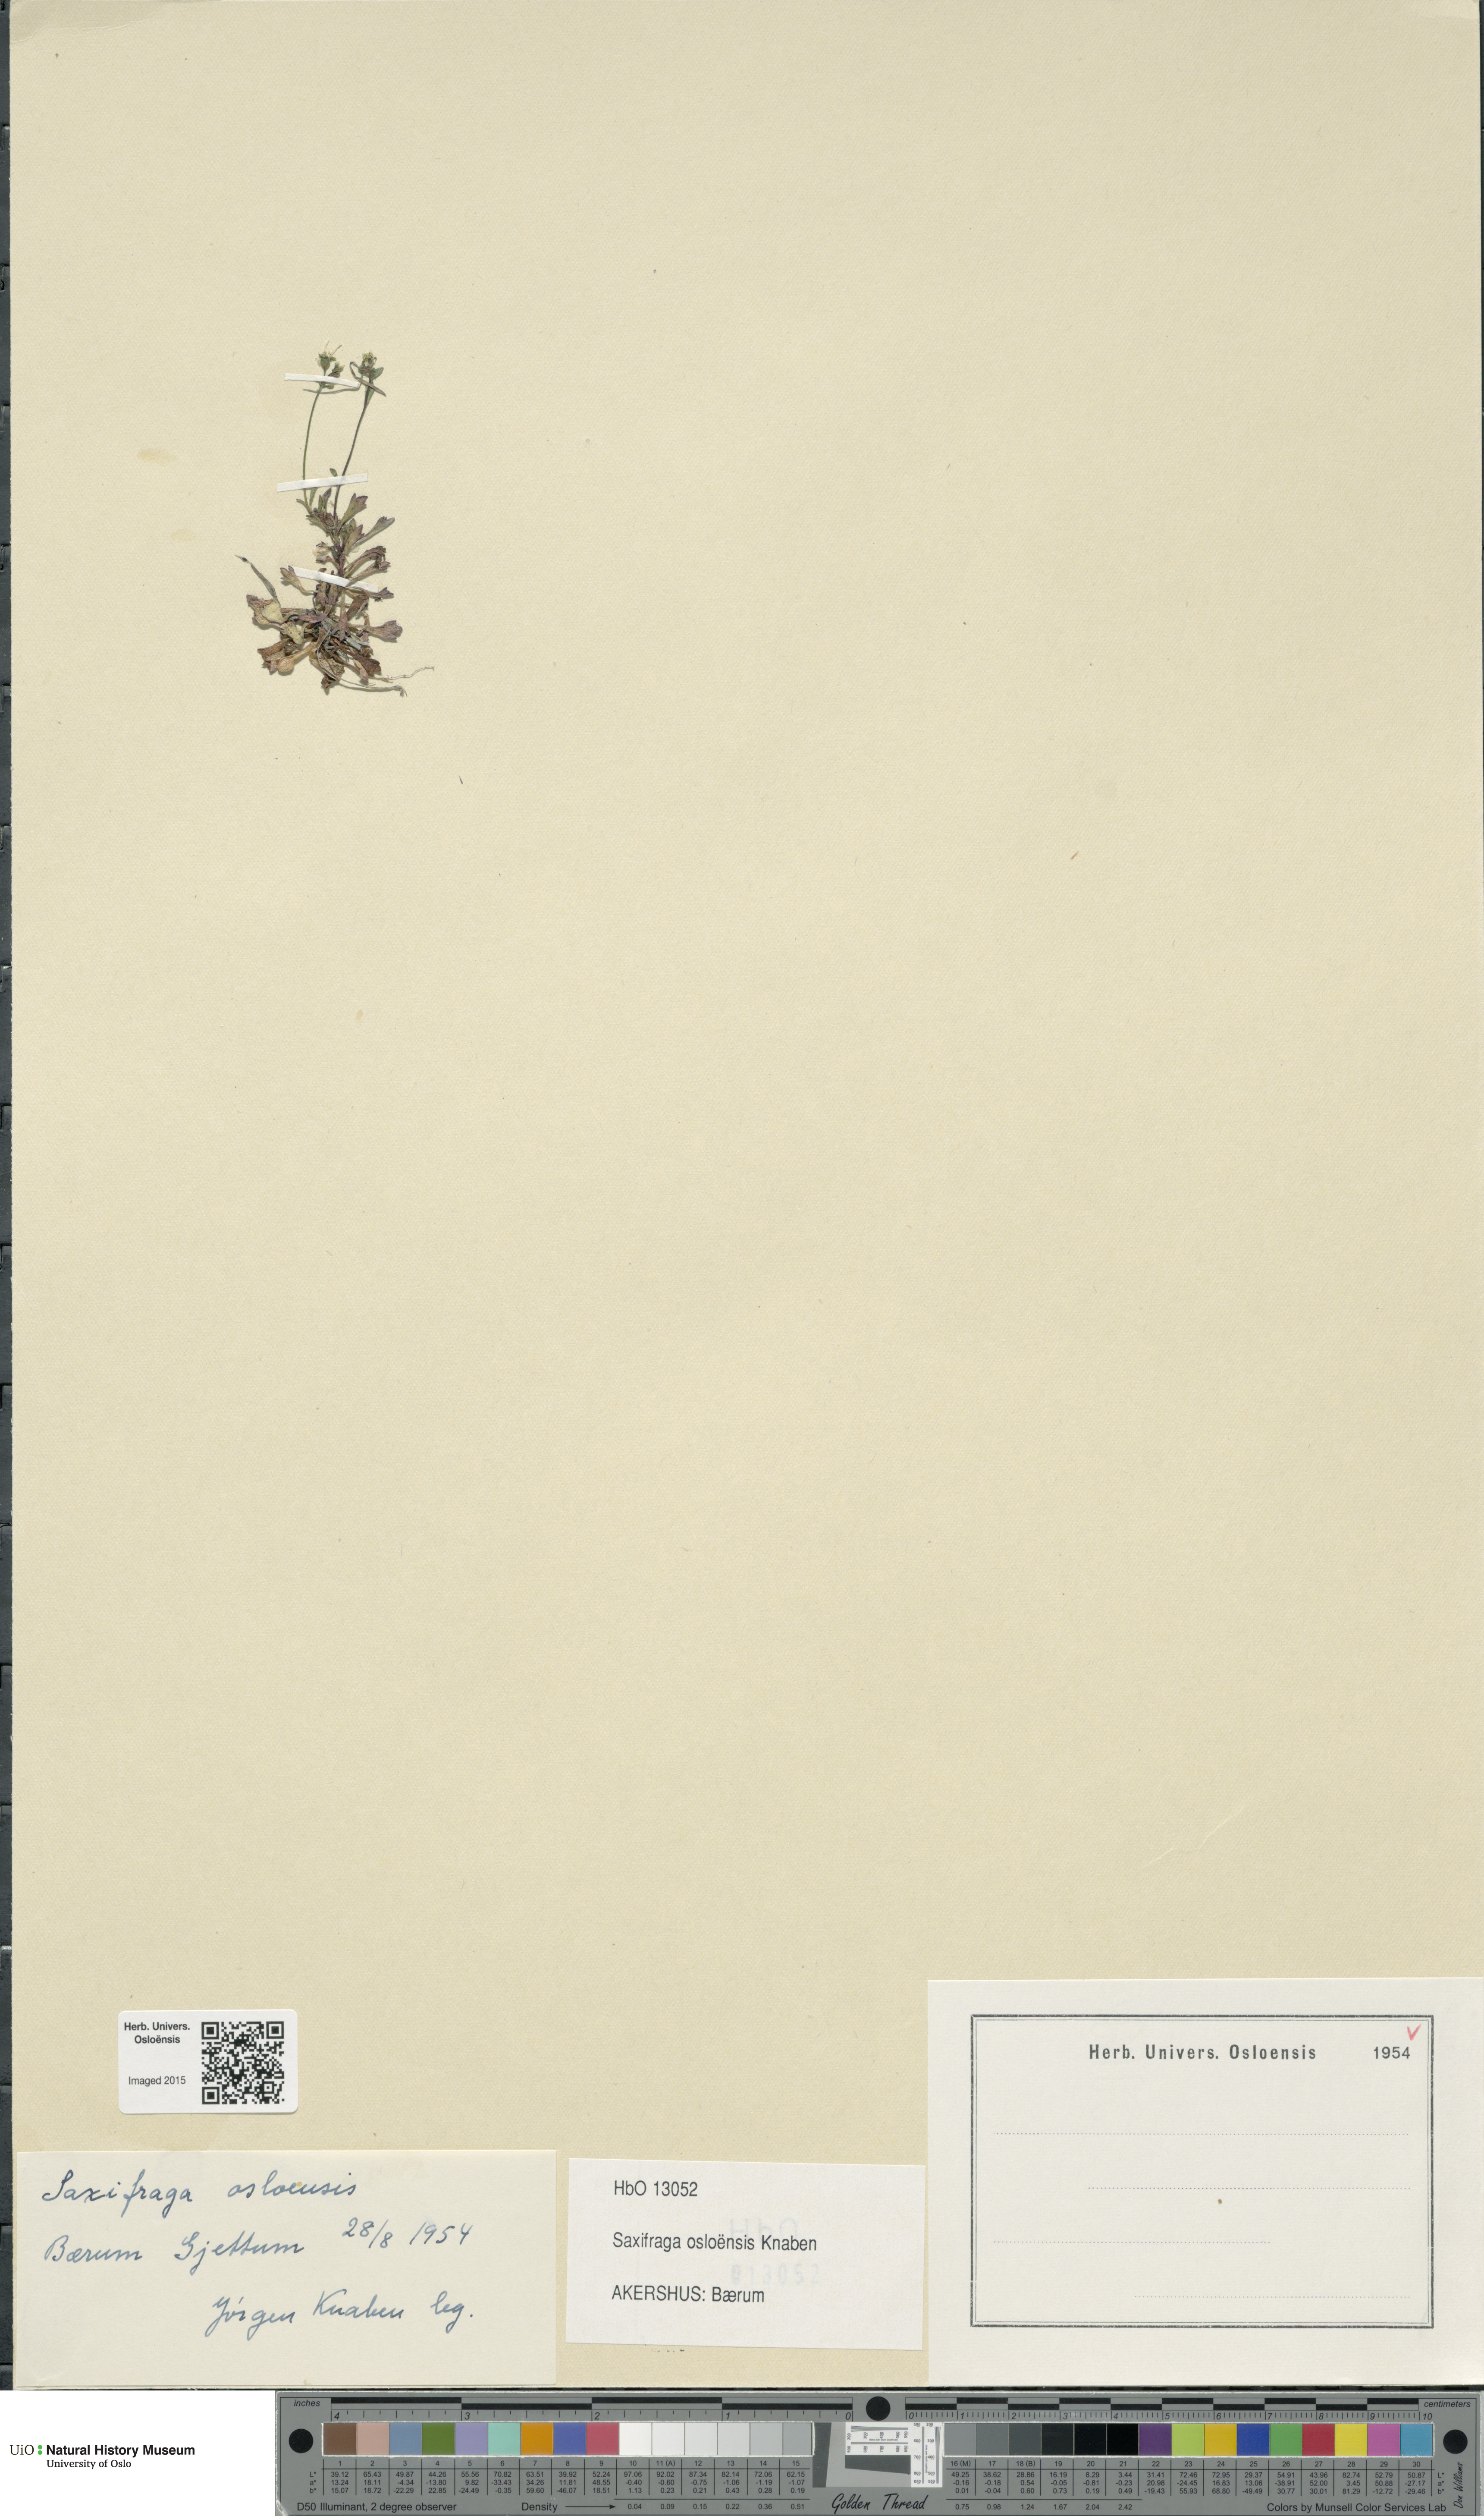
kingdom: Plantae
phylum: Tracheophyta
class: Magnoliopsida
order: Saxifragales
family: Saxifragaceae
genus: Saxifraga
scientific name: Saxifraga osloensis
